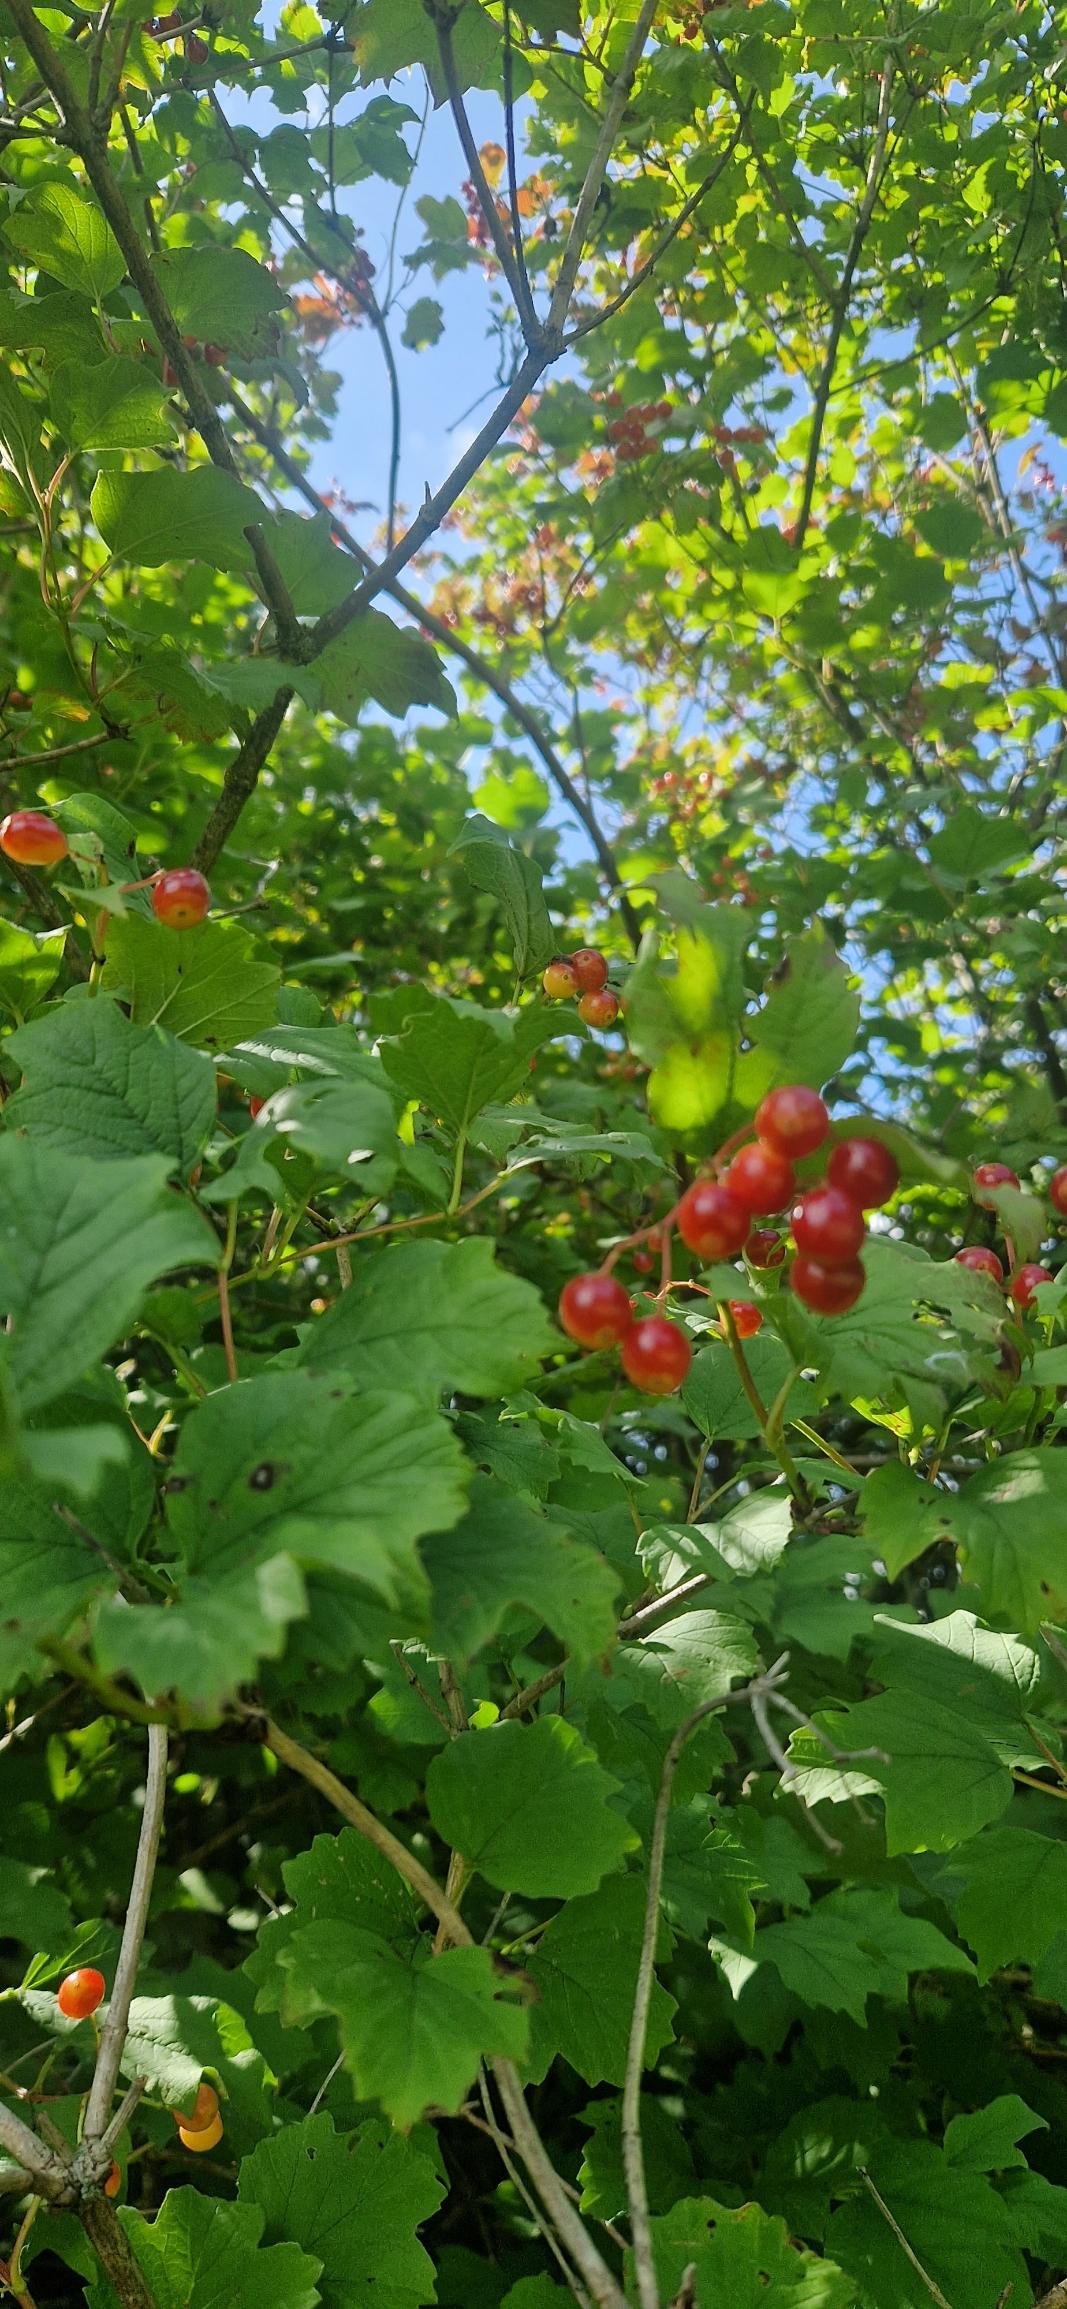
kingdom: Plantae
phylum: Tracheophyta
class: Magnoliopsida
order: Dipsacales
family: Viburnaceae
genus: Viburnum
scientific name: Viburnum opulus
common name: Kvalkved
